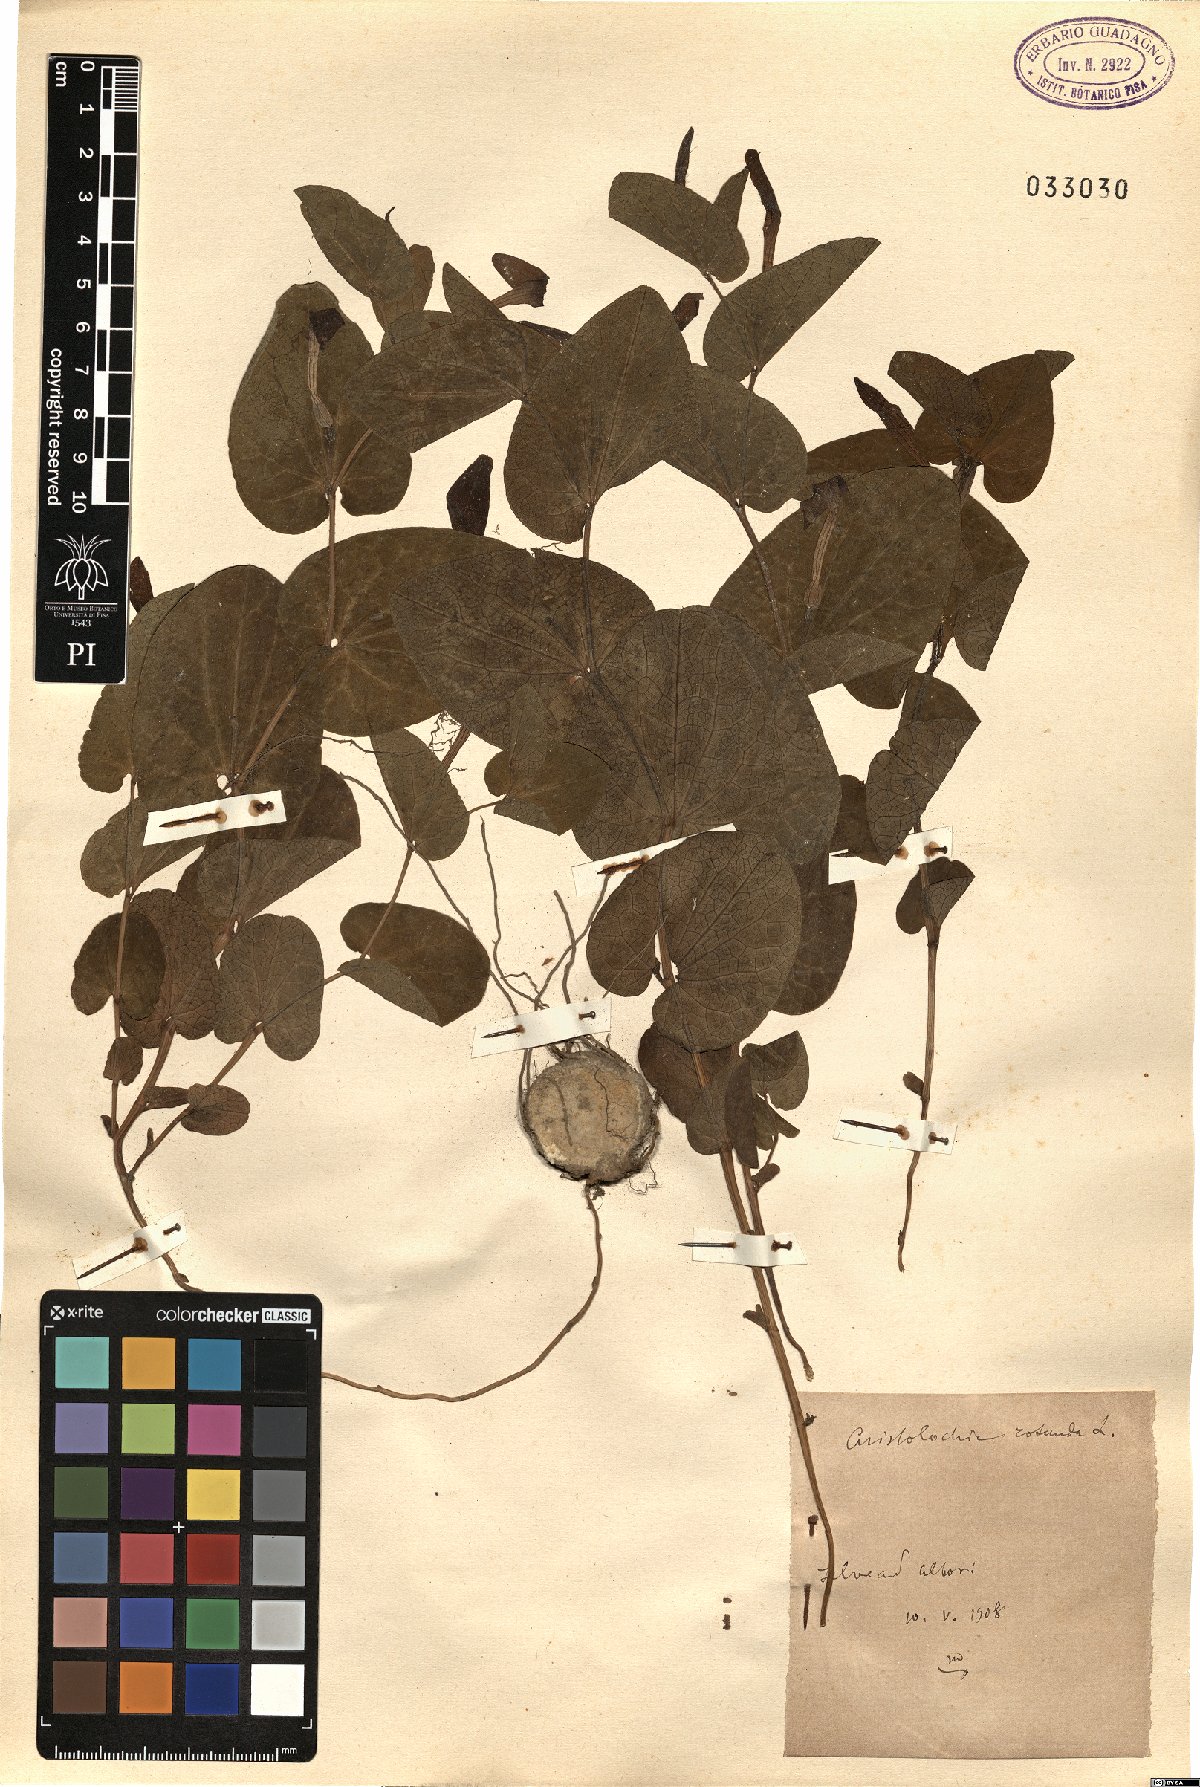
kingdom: Plantae
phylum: Tracheophyta
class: Magnoliopsida
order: Piperales
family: Aristolochiaceae
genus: Aristolochia
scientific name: Aristolochia rotunda
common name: Smearwort
